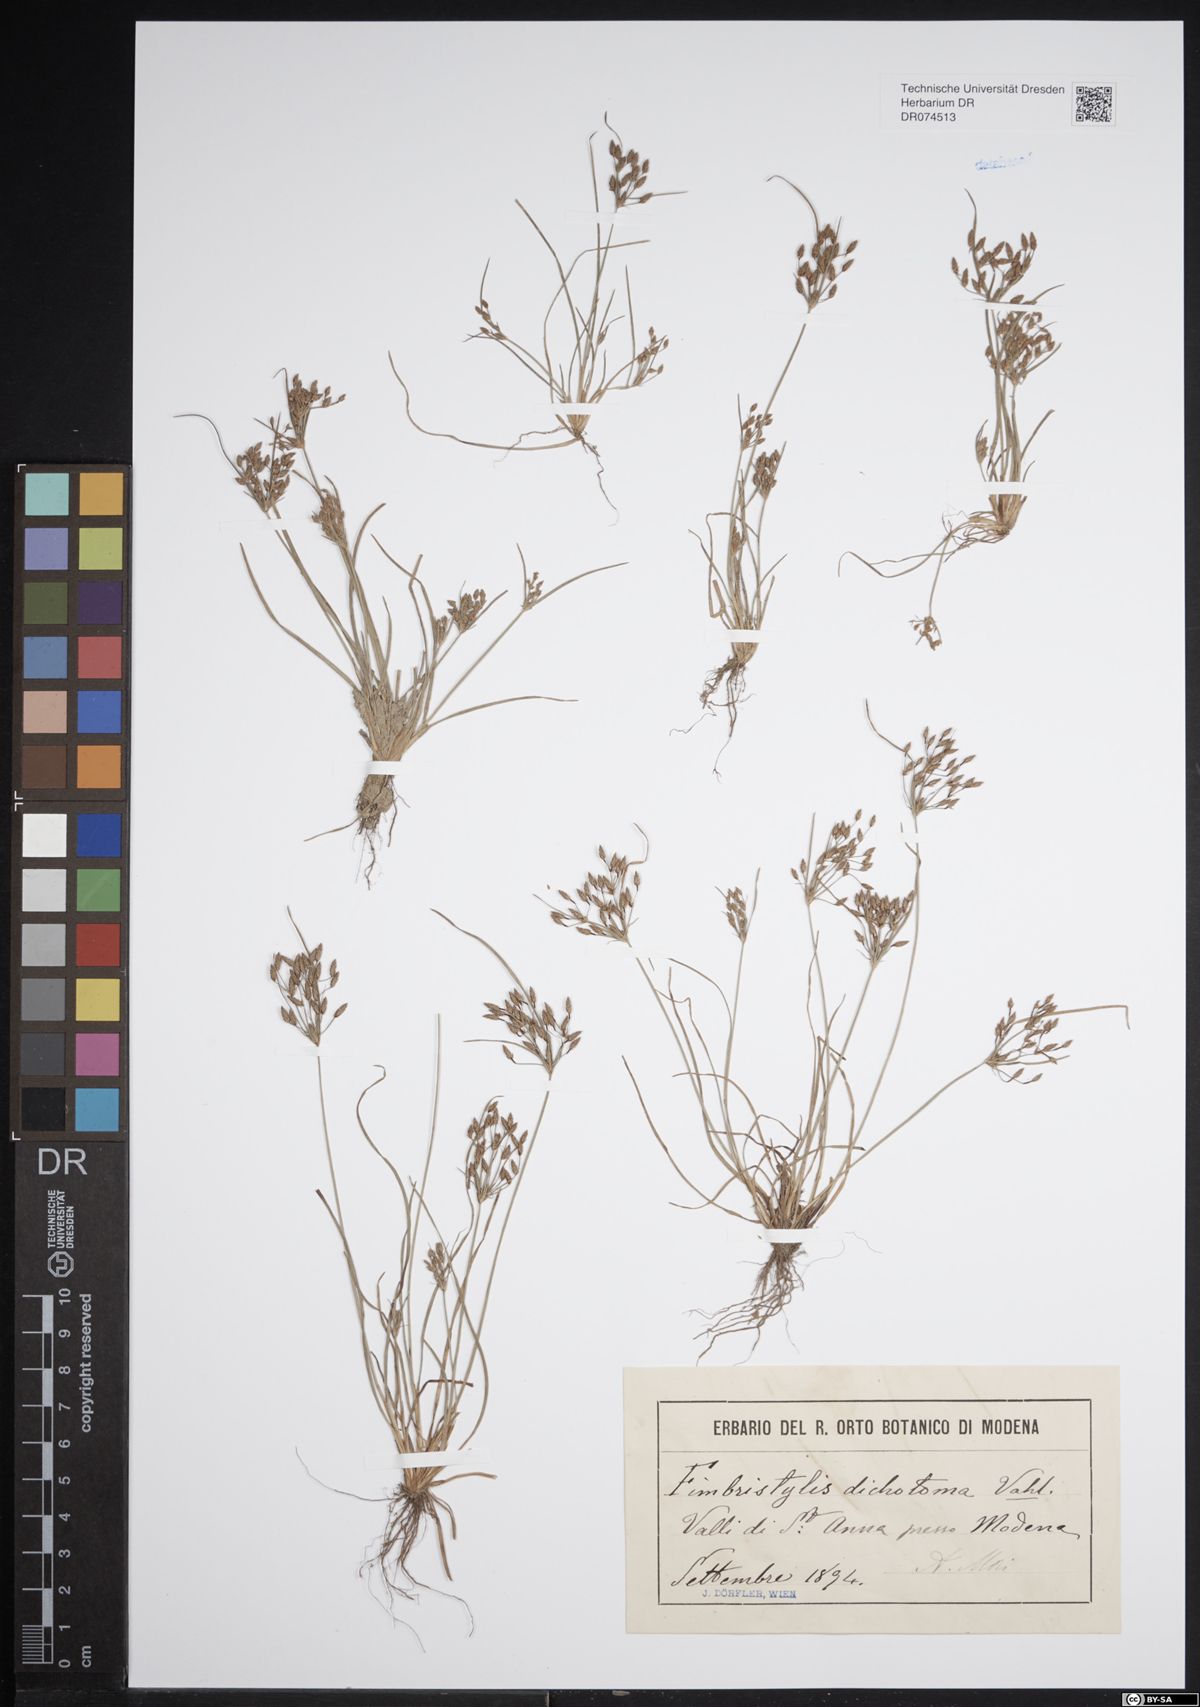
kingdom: Plantae
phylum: Tracheophyta
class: Liliopsida
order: Poales
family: Cyperaceae
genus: Fimbristylis
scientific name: Fimbristylis dichotoma
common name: Forked fimbry
